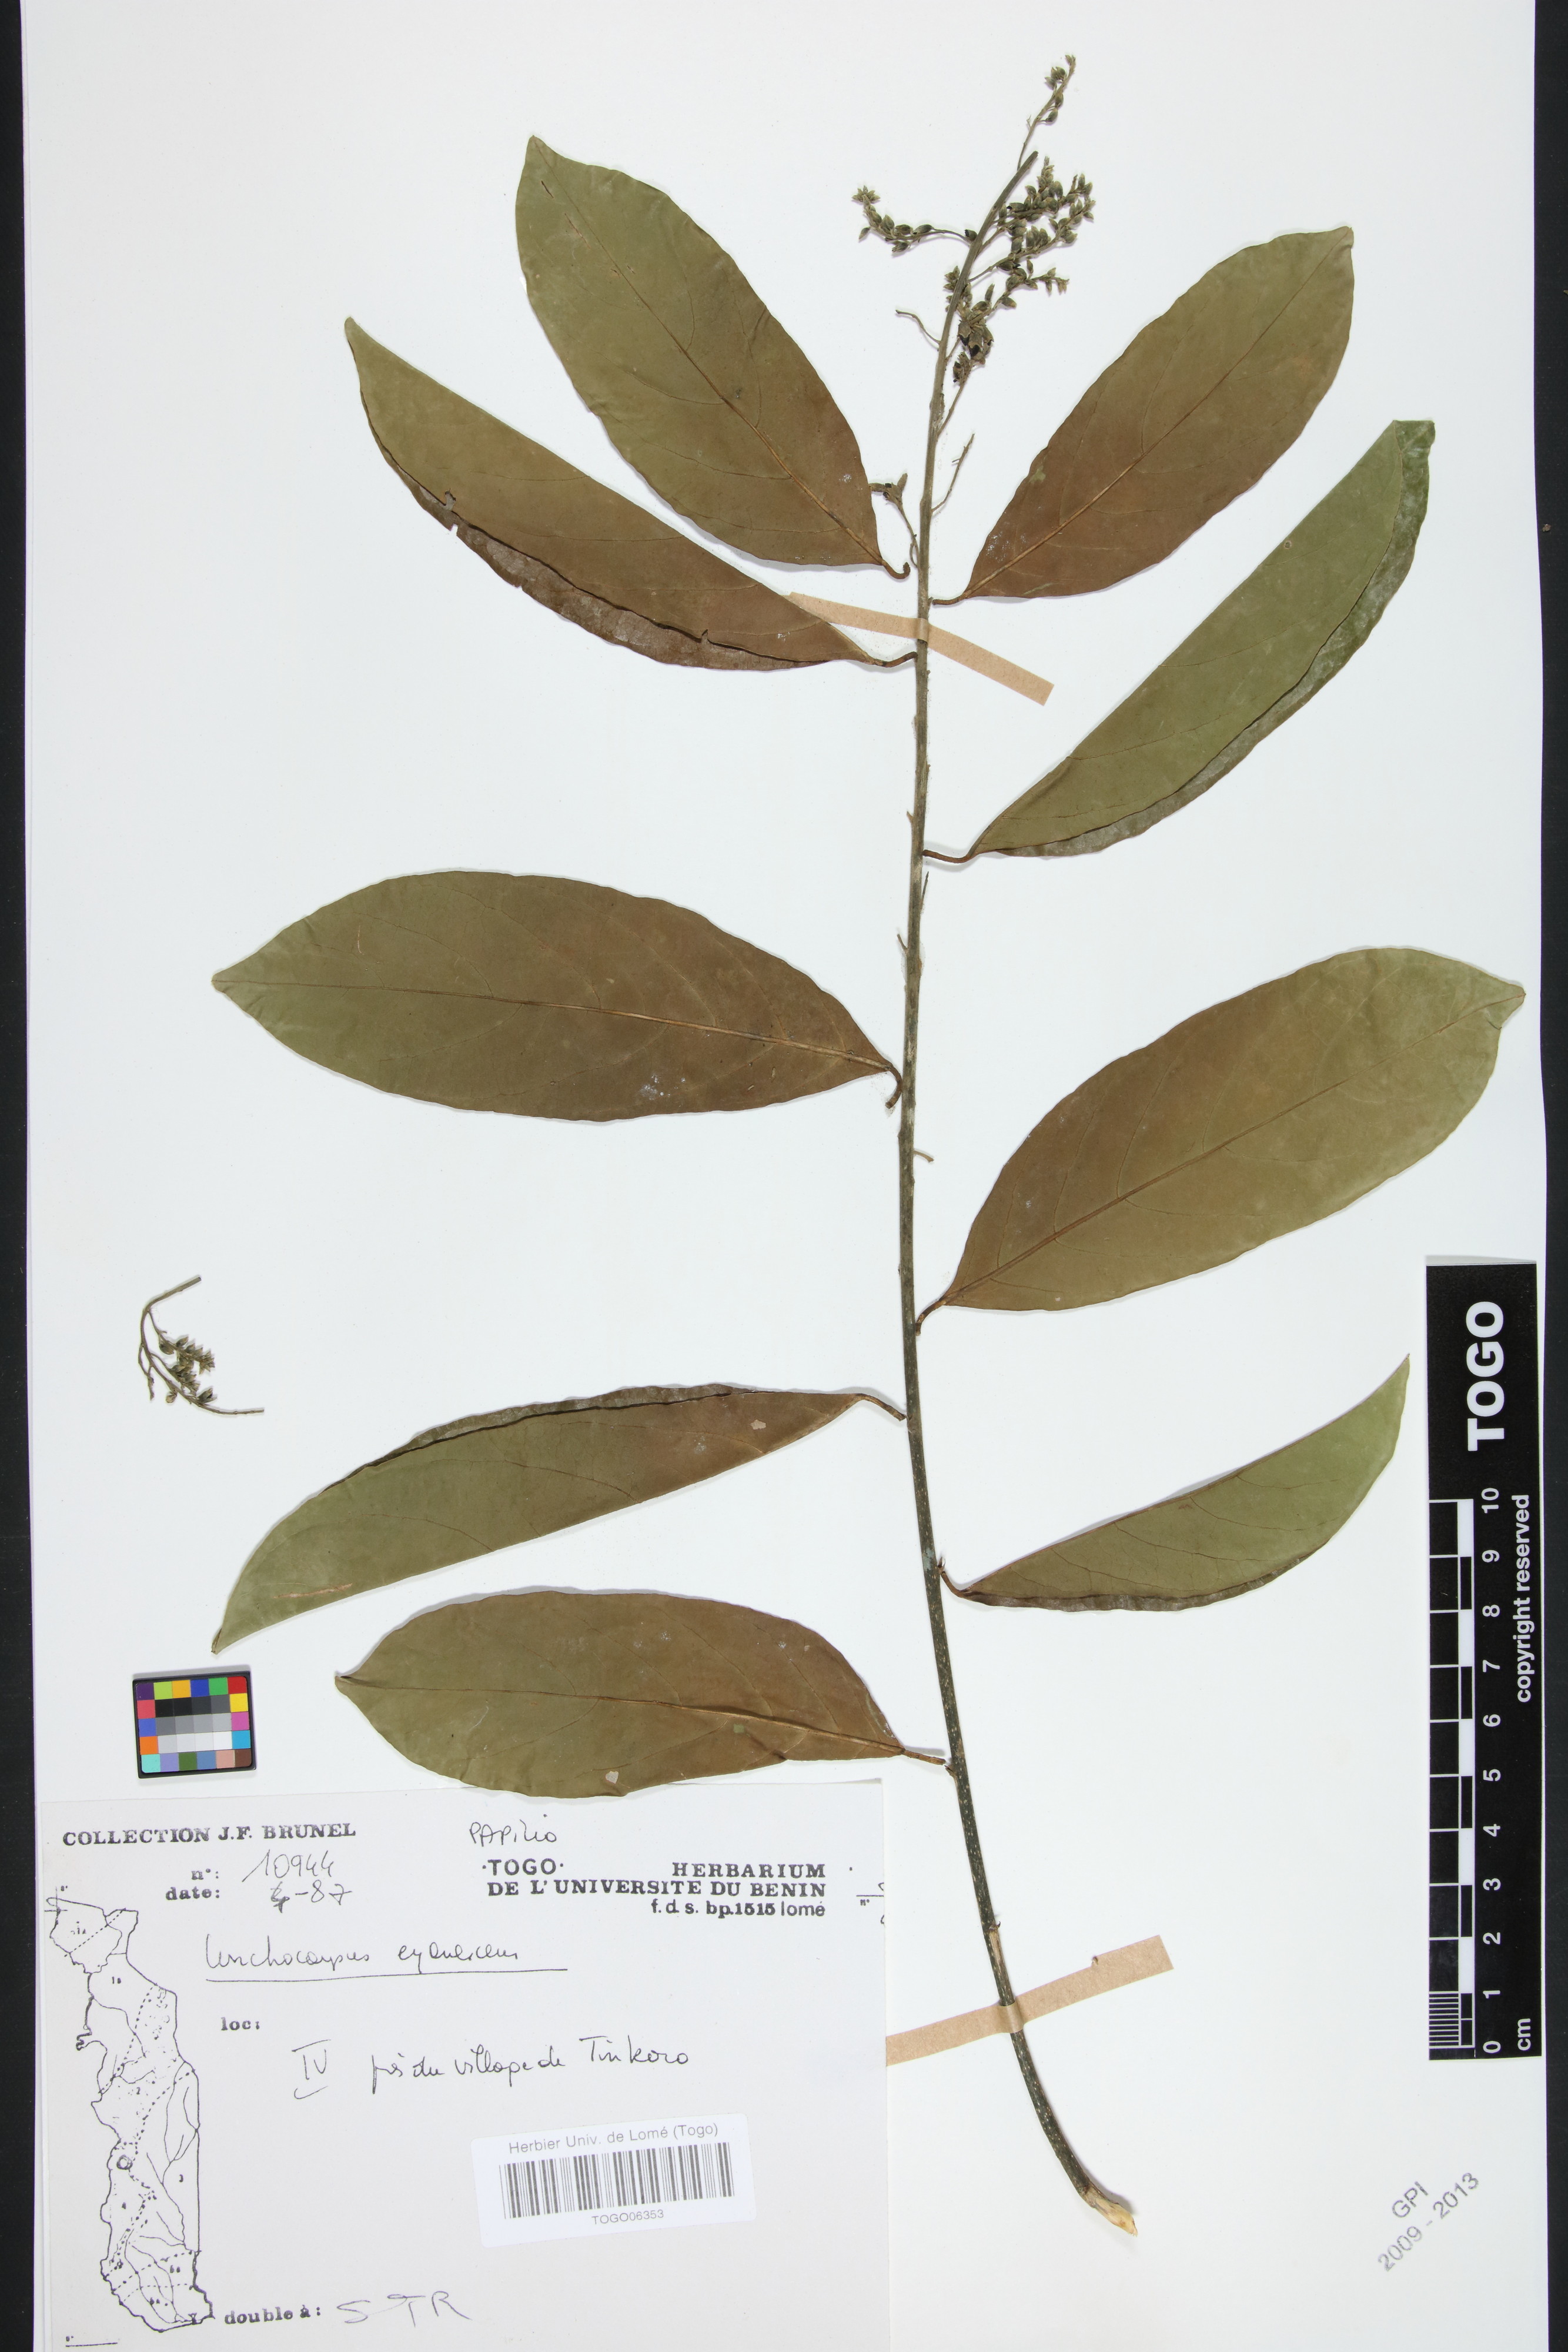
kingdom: Plantae
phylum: Tracheophyta
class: Magnoliopsida
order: Fabales
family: Fabaceae
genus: Philenoptera
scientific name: Philenoptera cyanescens
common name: West african-indigo
